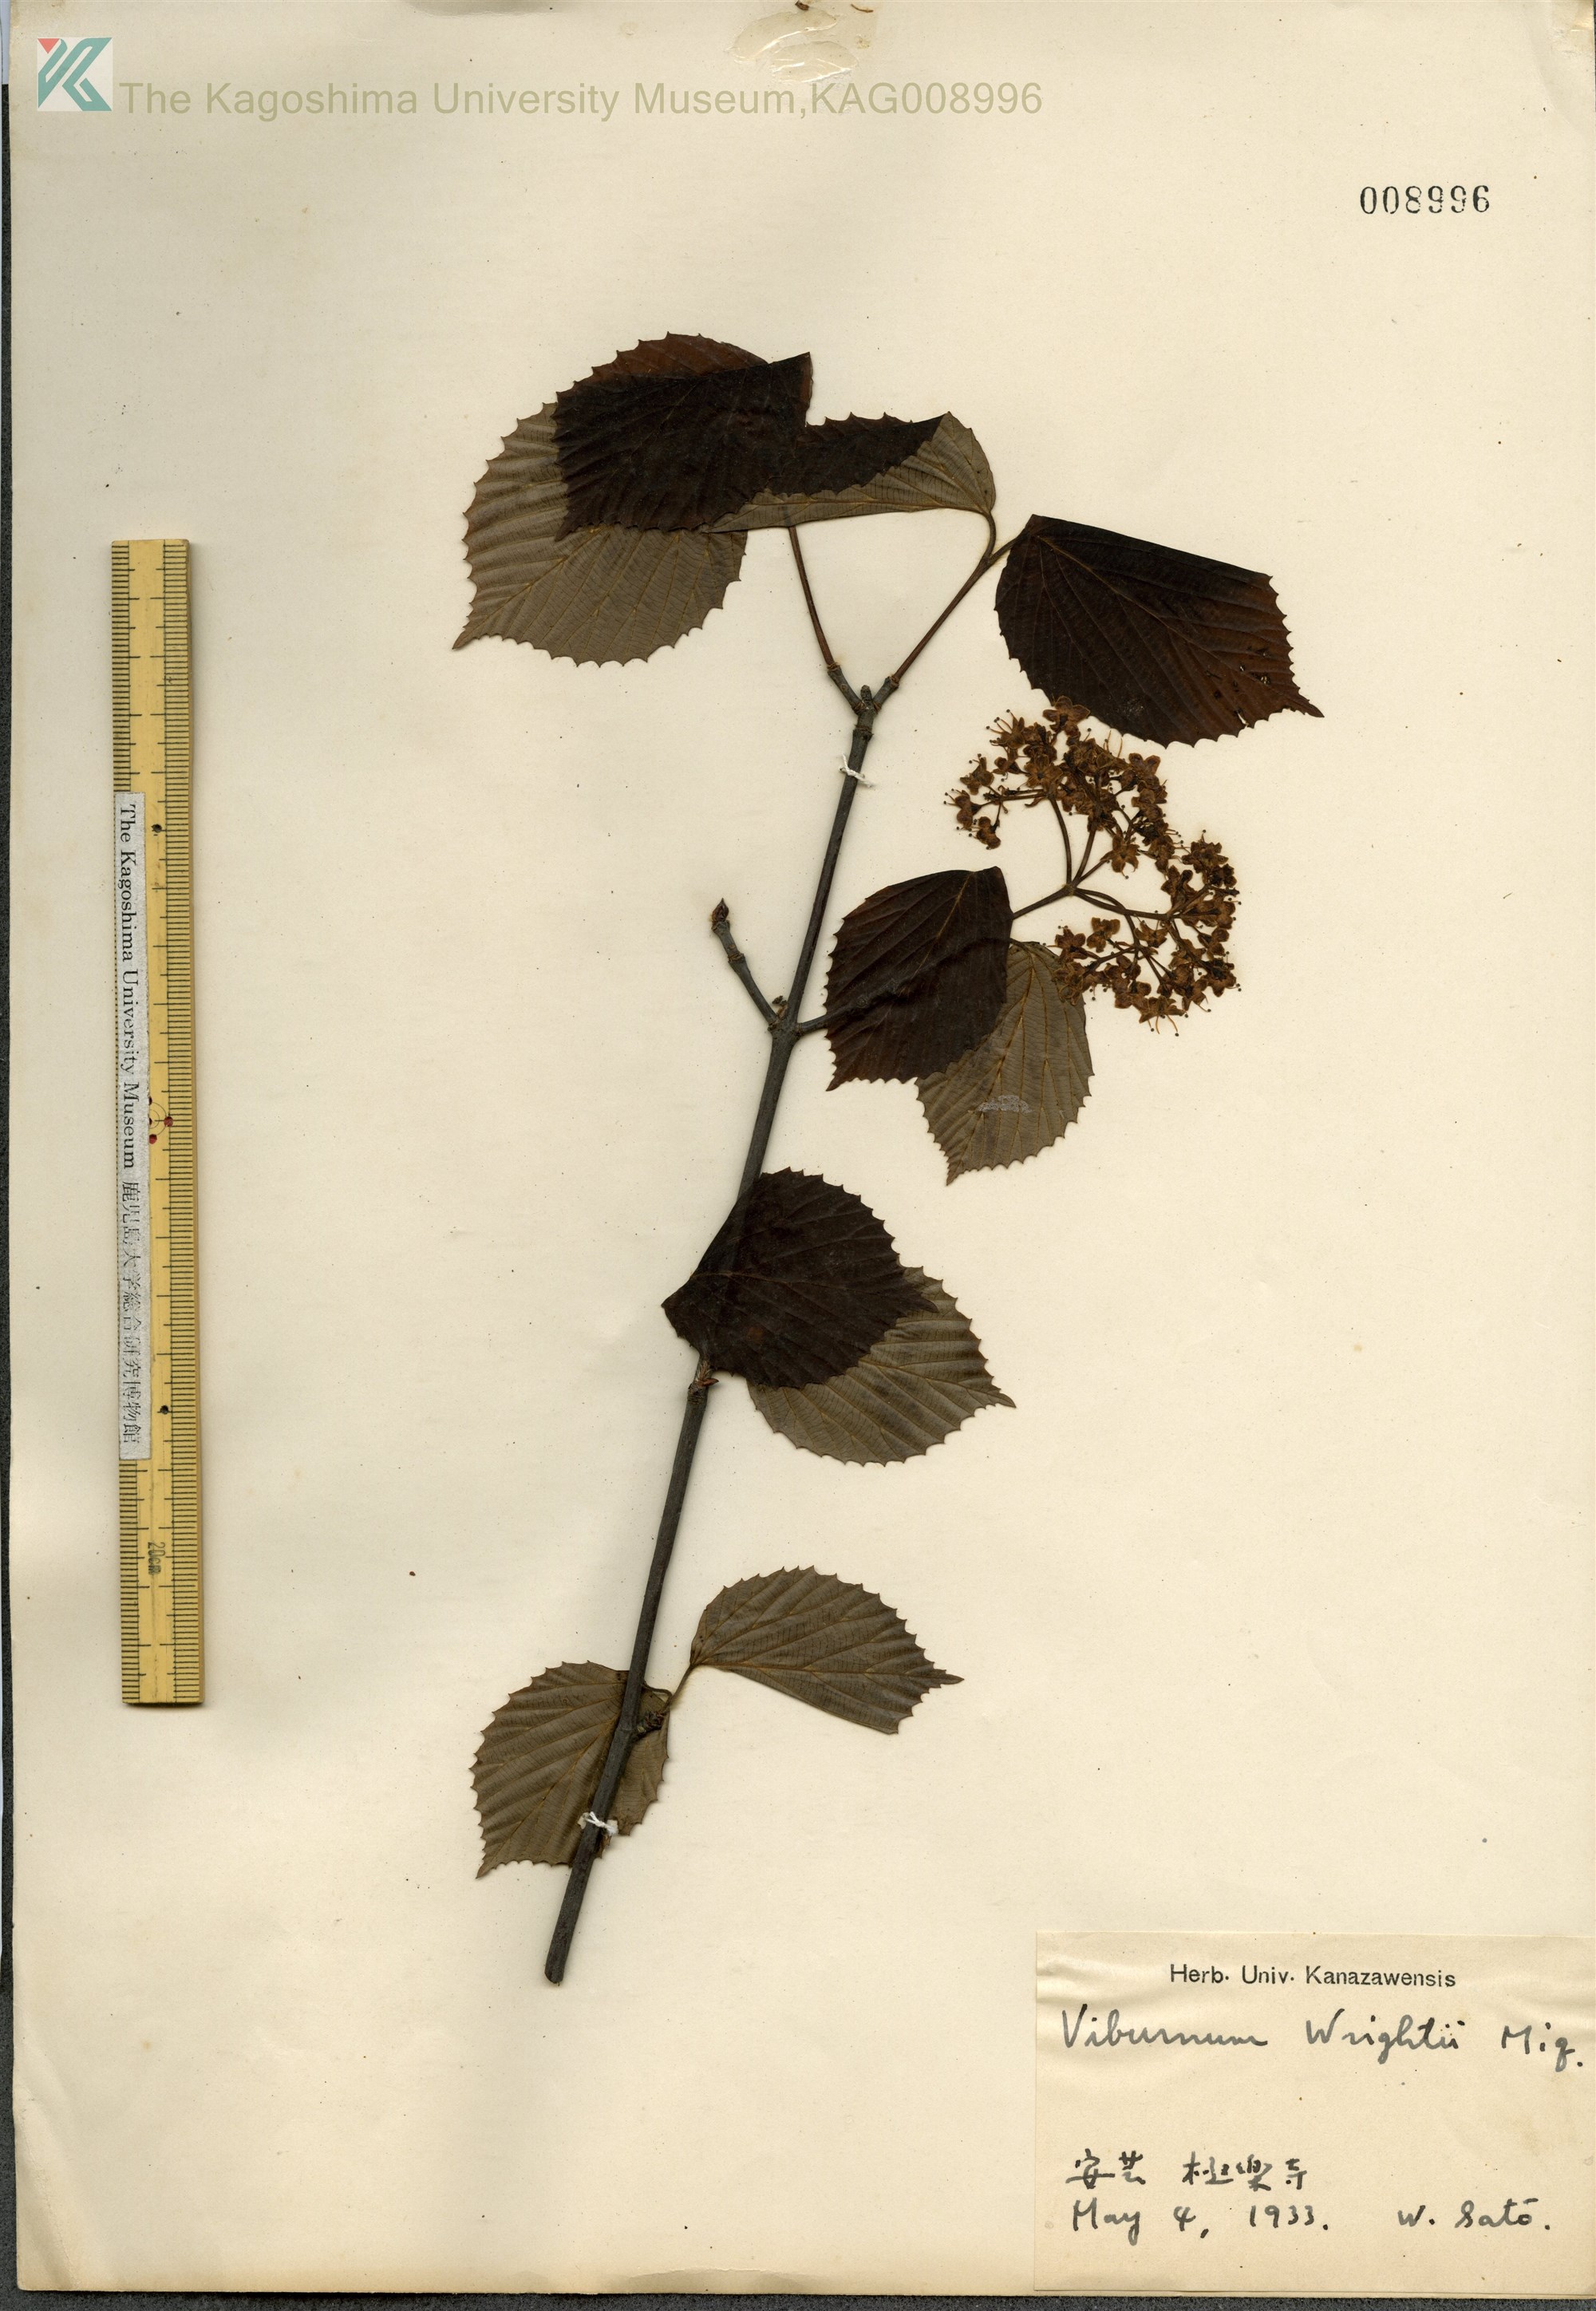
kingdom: Plantae
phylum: Tracheophyta
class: Magnoliopsida
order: Dipsacales
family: Viburnaceae
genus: Viburnum
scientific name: Viburnum wrightii
